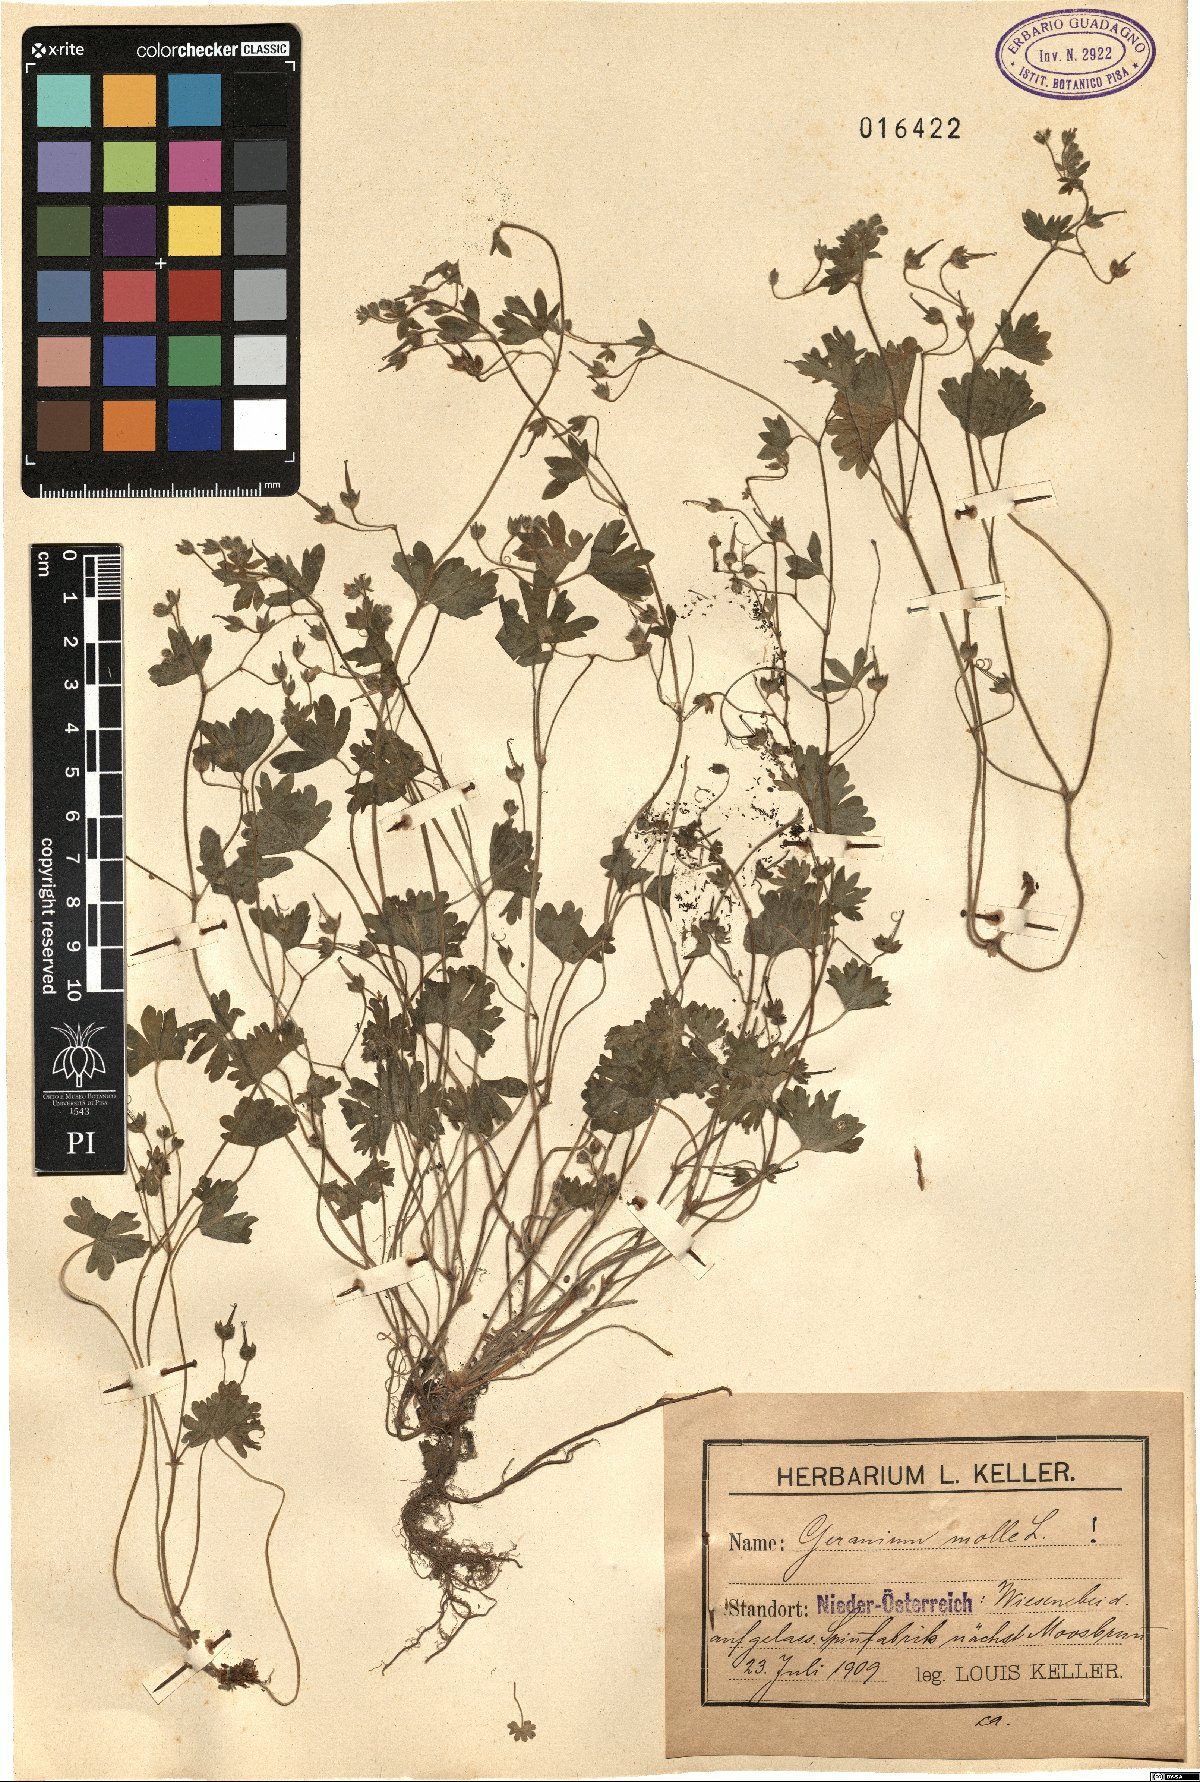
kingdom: Plantae
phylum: Tracheophyta
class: Magnoliopsida
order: Geraniales
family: Geraniaceae
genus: Geranium
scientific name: Geranium molle
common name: Dove's-foot crane's-bill
